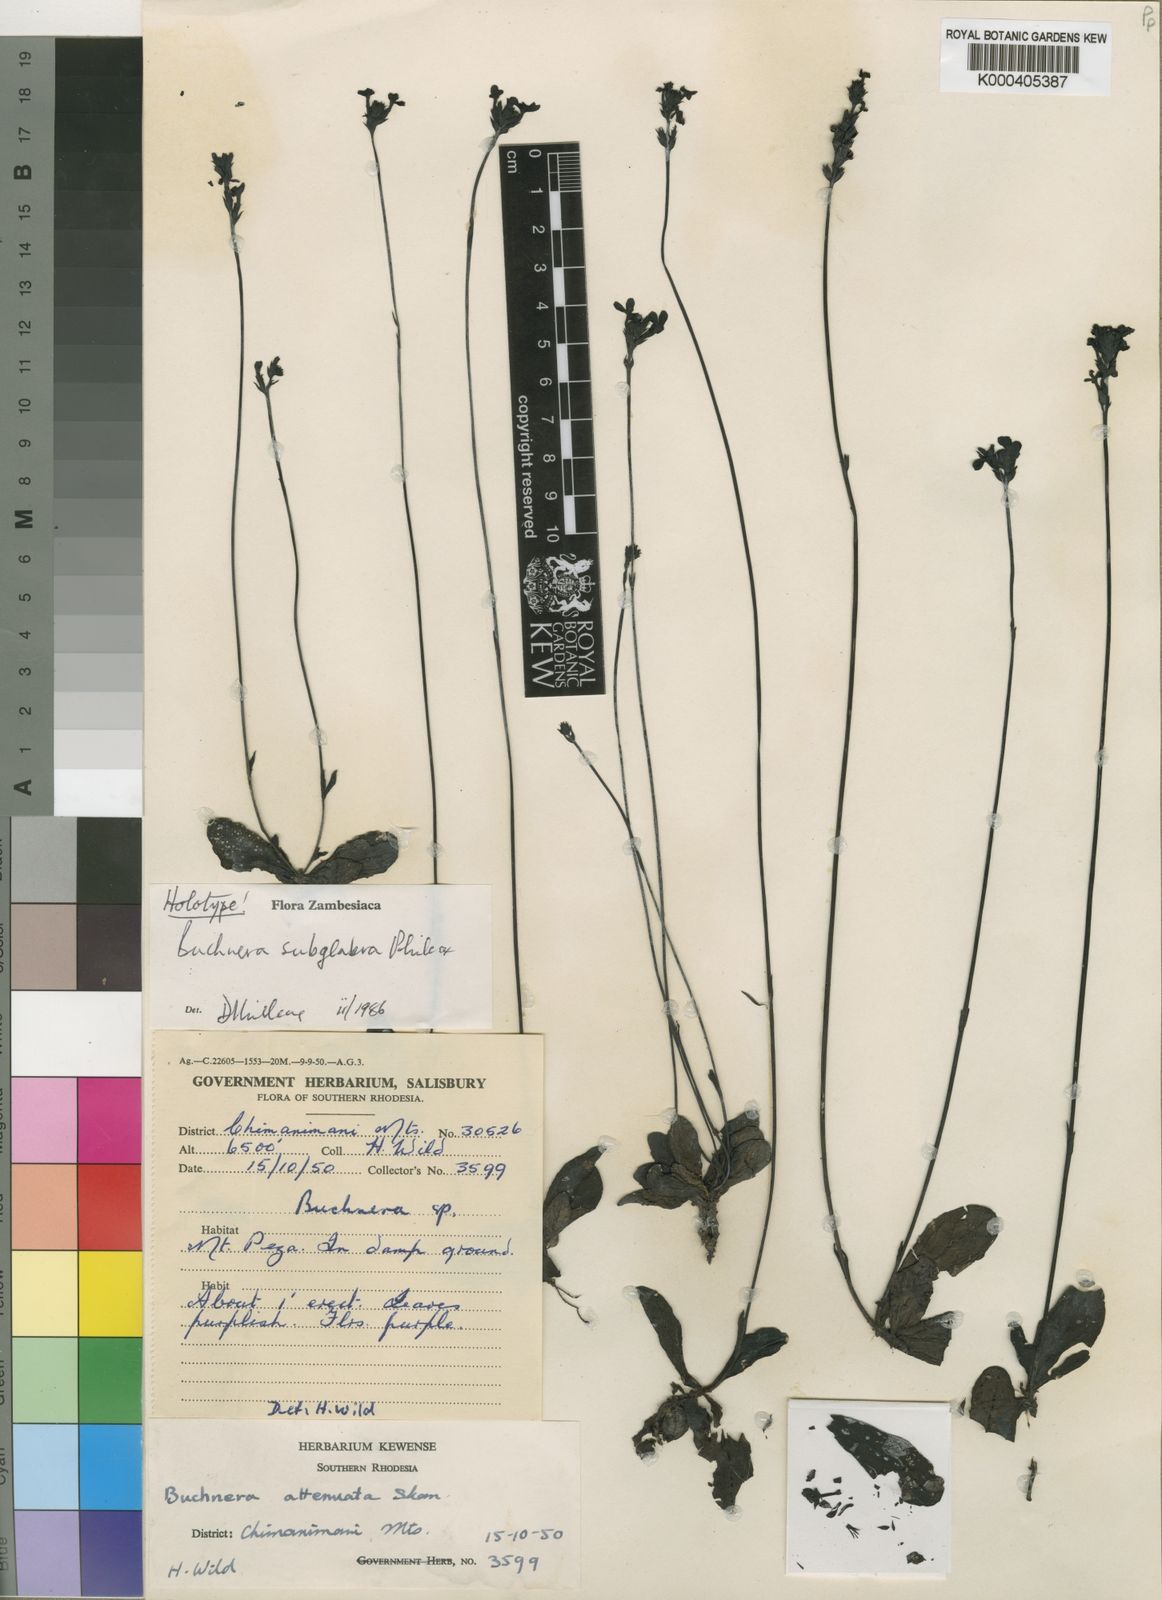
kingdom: Plantae
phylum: Tracheophyta
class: Magnoliopsida
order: Lamiales
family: Orobanchaceae
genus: Buchnera
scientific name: Buchnera subglabra
